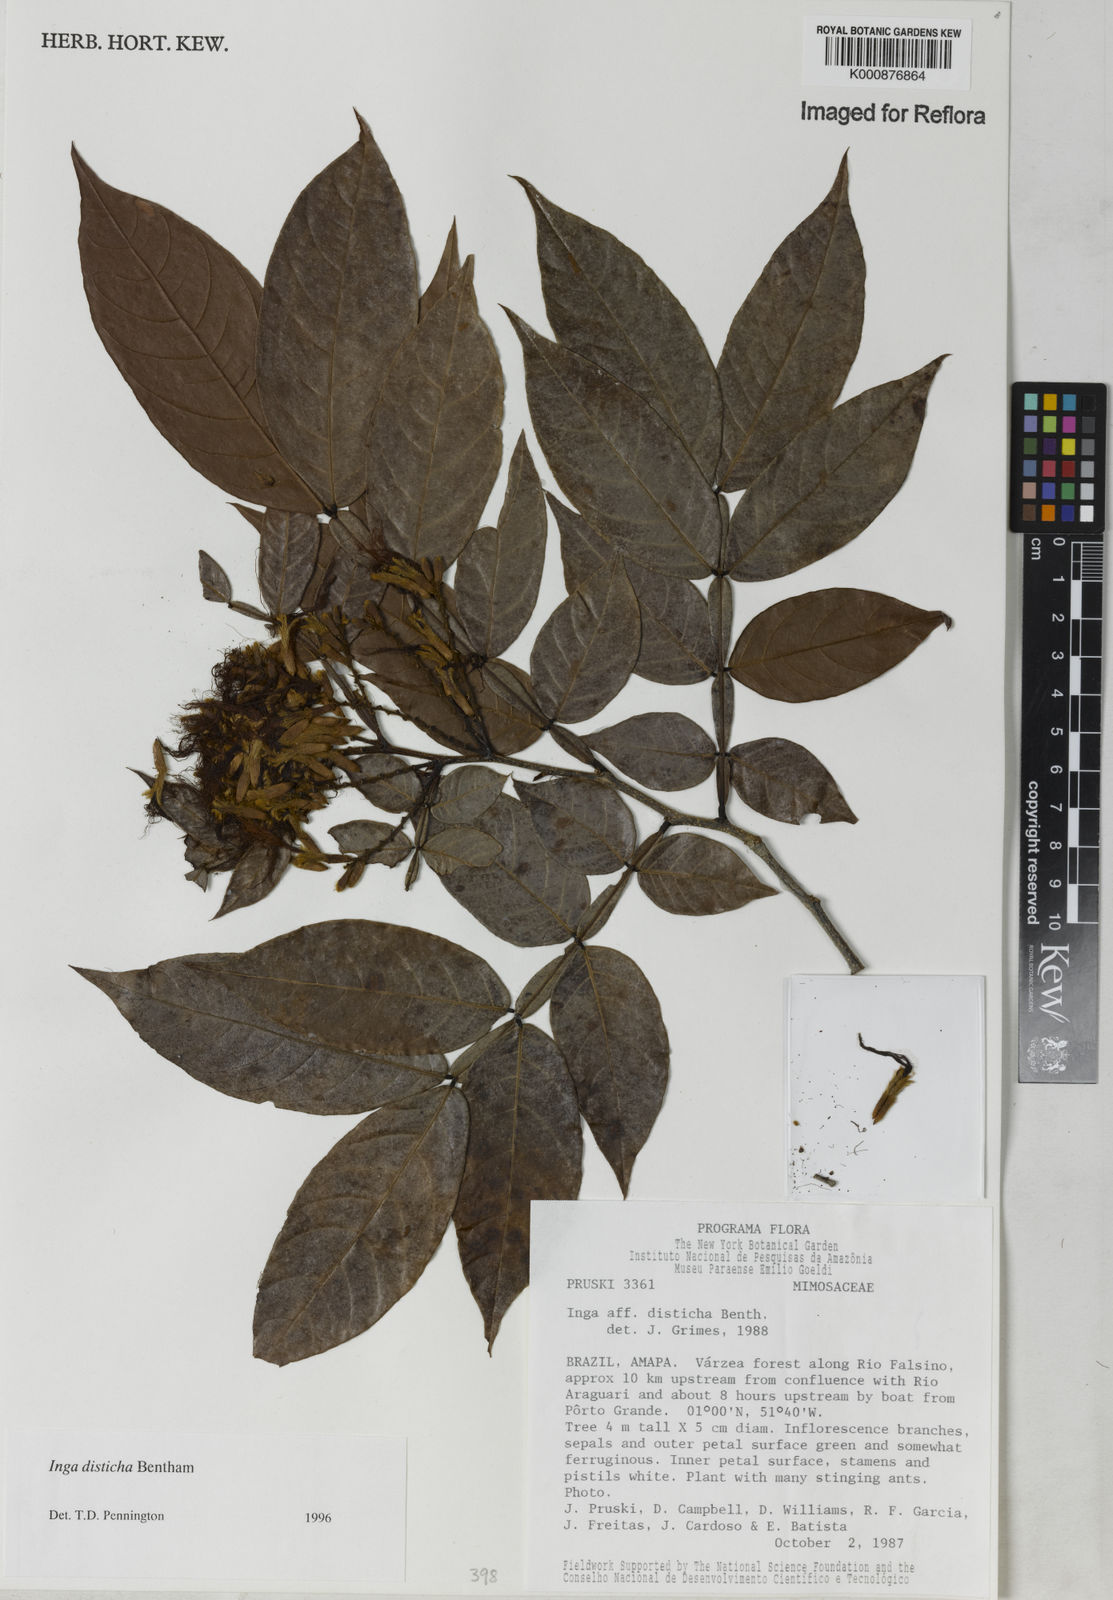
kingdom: Plantae
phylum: Tracheophyta
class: Magnoliopsida
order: Fabales
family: Fabaceae
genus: Inga
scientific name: Inga disticha
